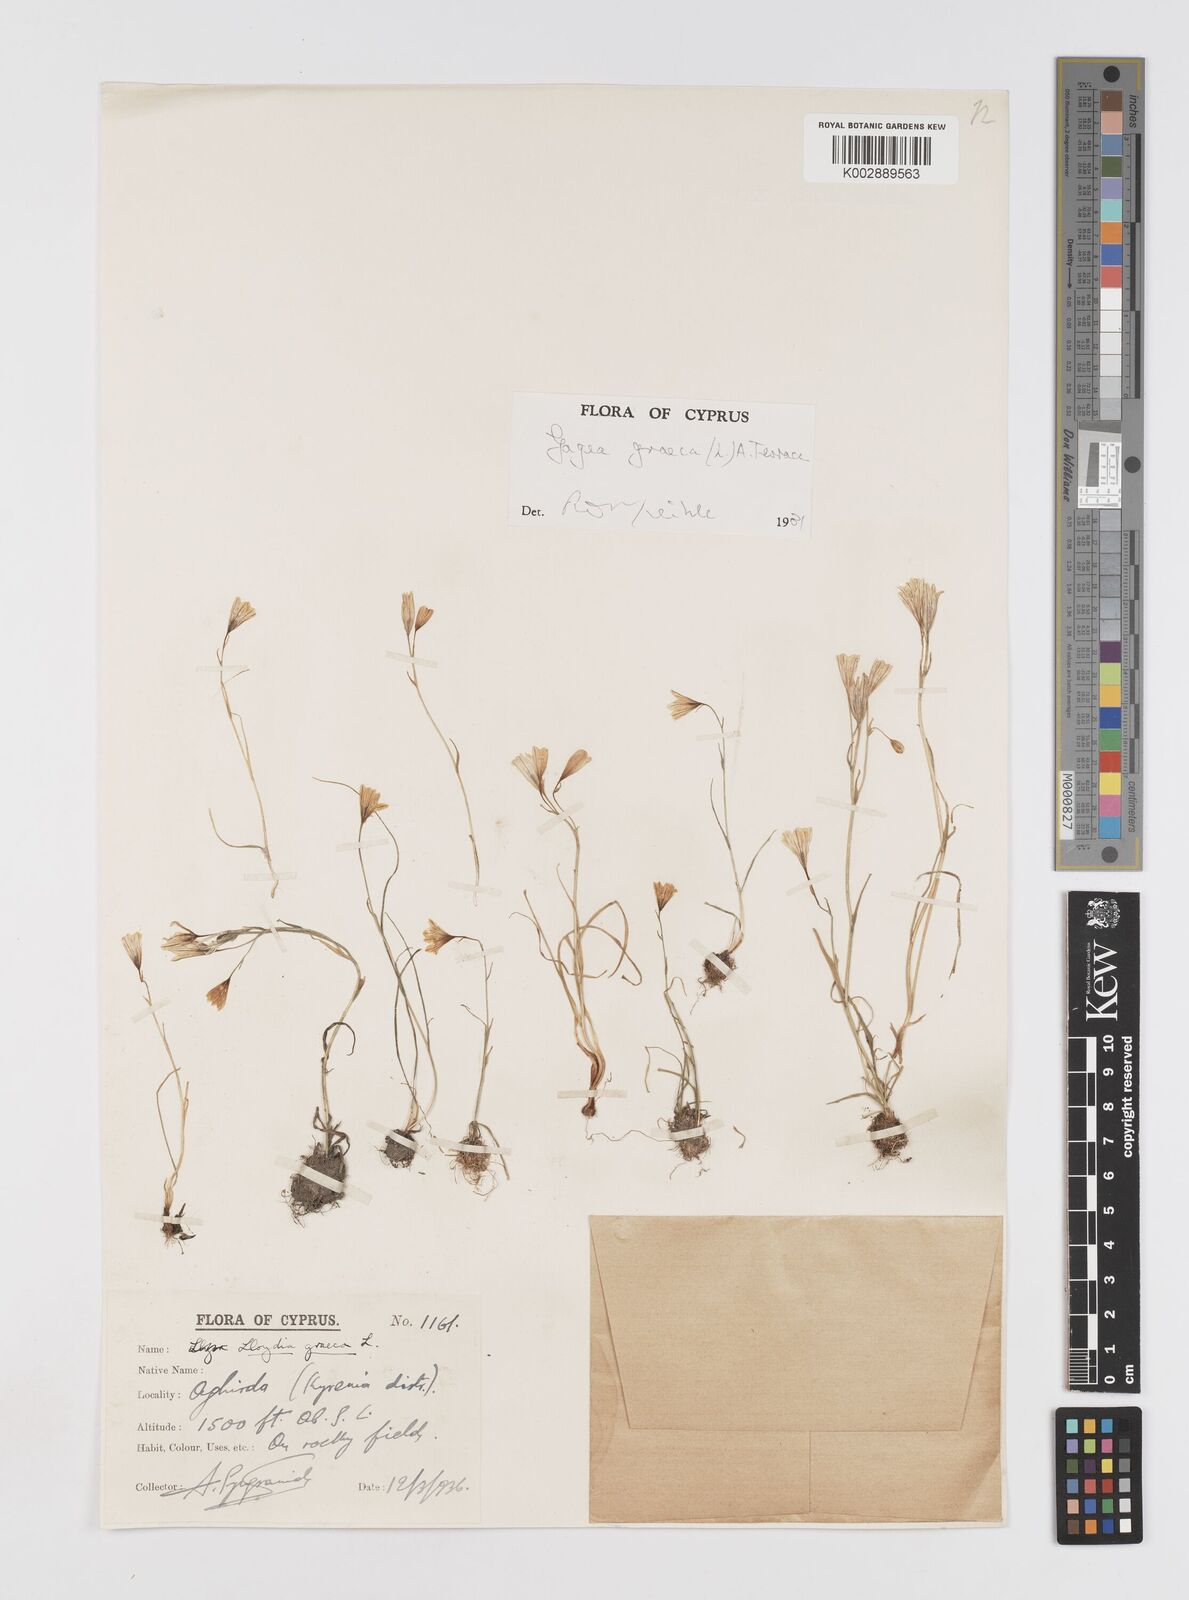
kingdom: Plantae
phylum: Tracheophyta
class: Liliopsida
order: Liliales
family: Liliaceae
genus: Gagea
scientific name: Gagea graeca
